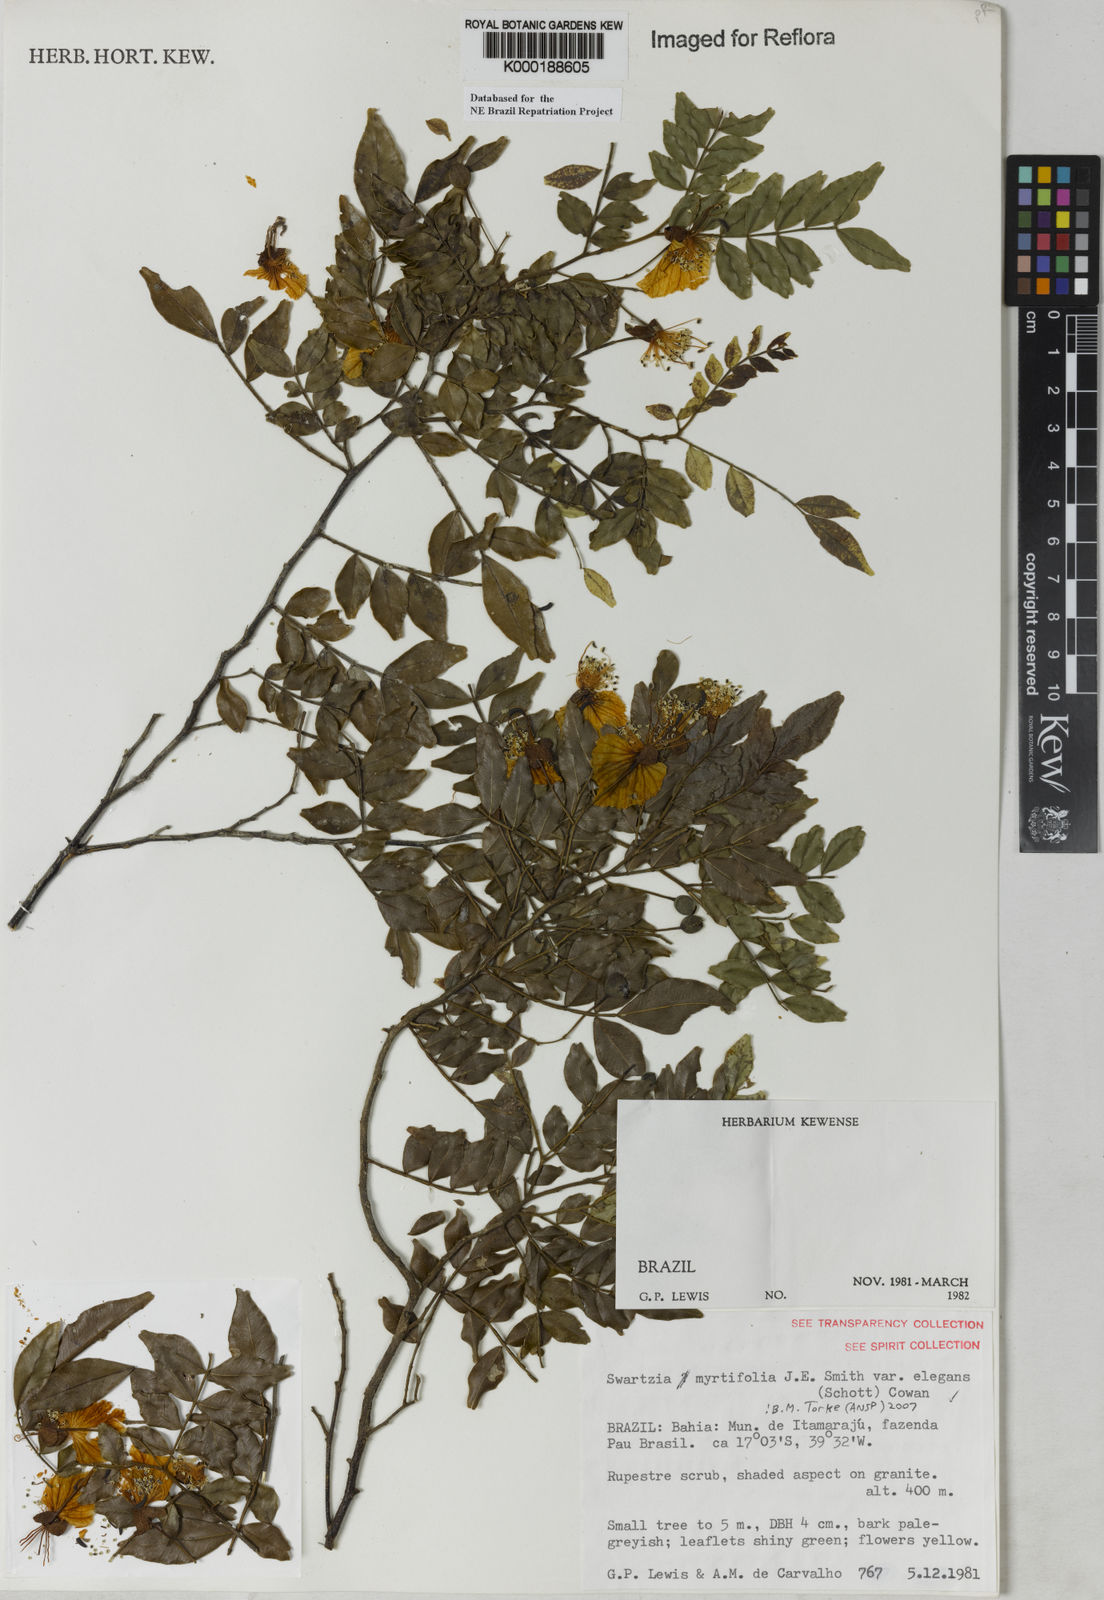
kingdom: Plantae
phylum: Tracheophyta
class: Magnoliopsida
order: Fabales
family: Fabaceae
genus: Swartzia
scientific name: Swartzia myrtifolia
